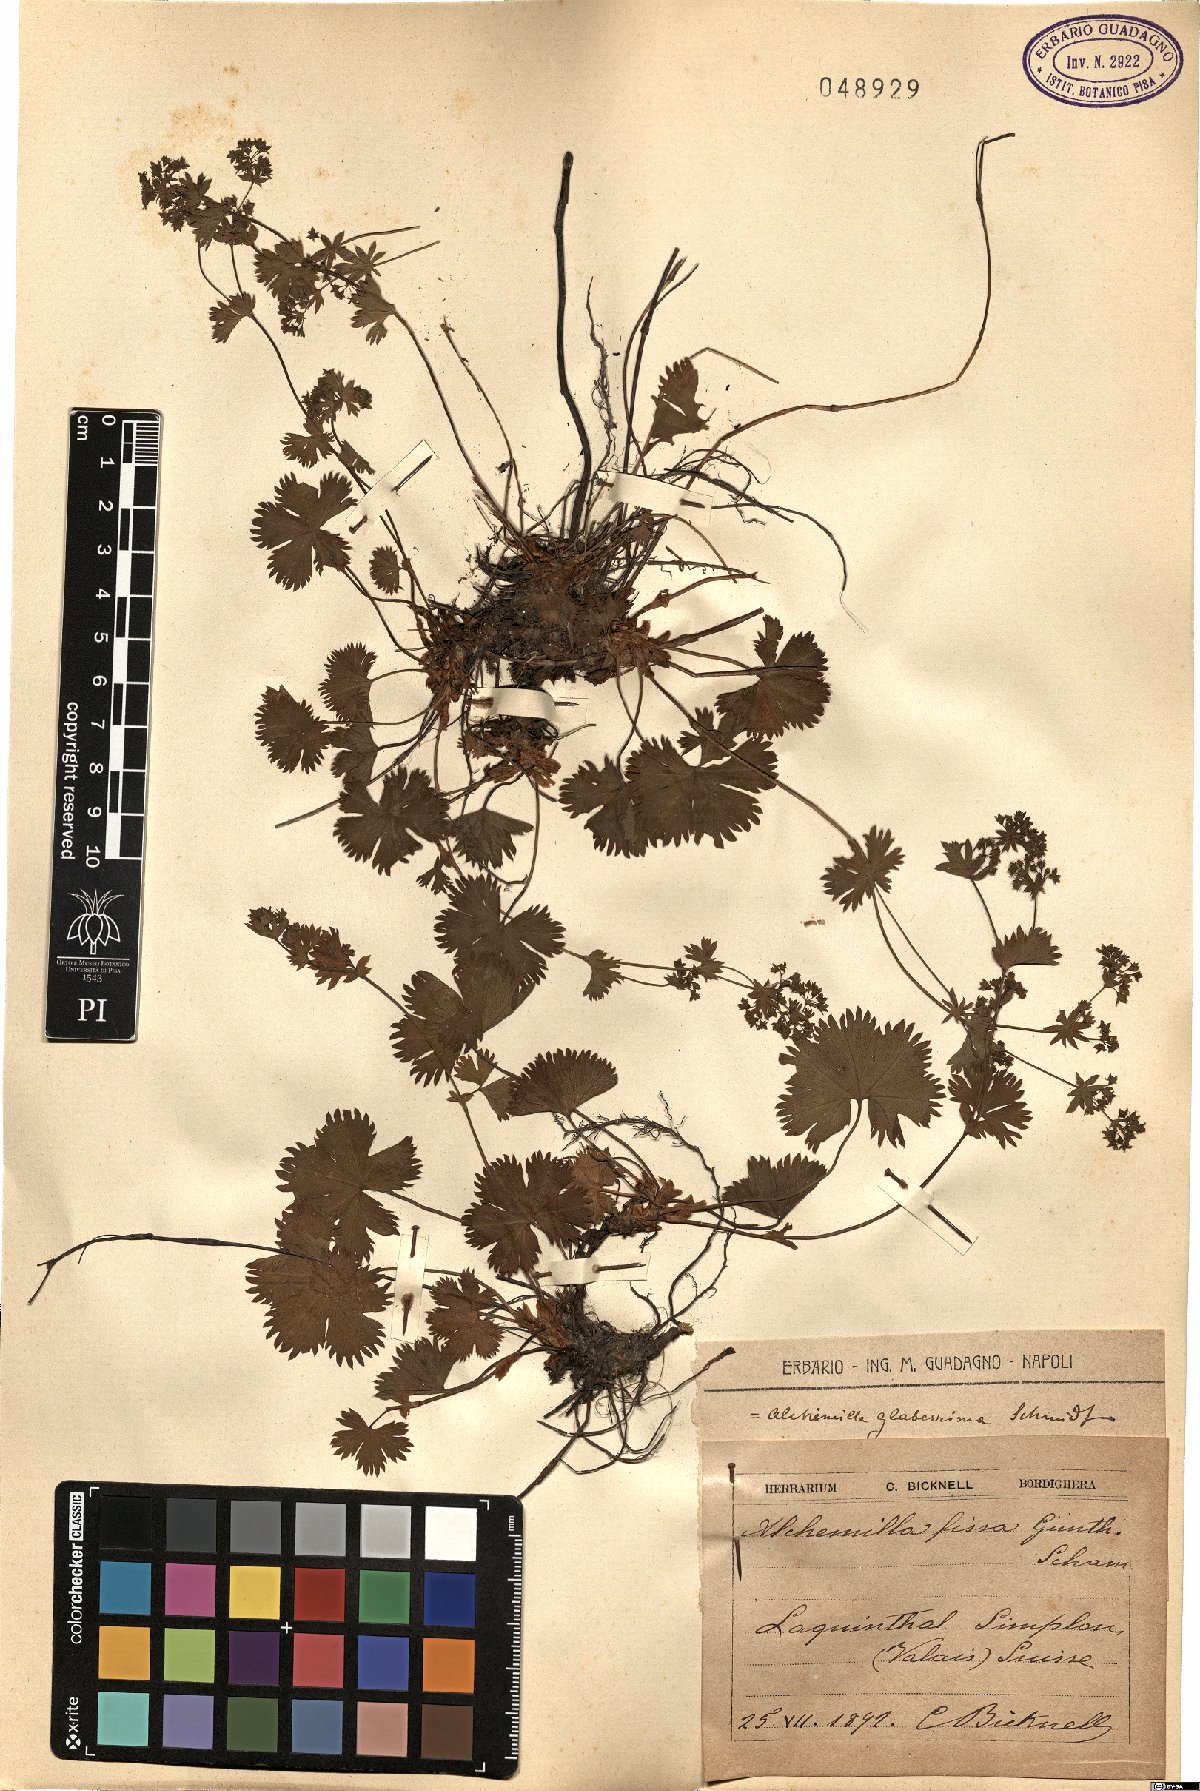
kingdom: Plantae
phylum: Tracheophyta
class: Magnoliopsida
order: Rosales
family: Rosaceae
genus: Alchemilla
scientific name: Alchemilla fissa
